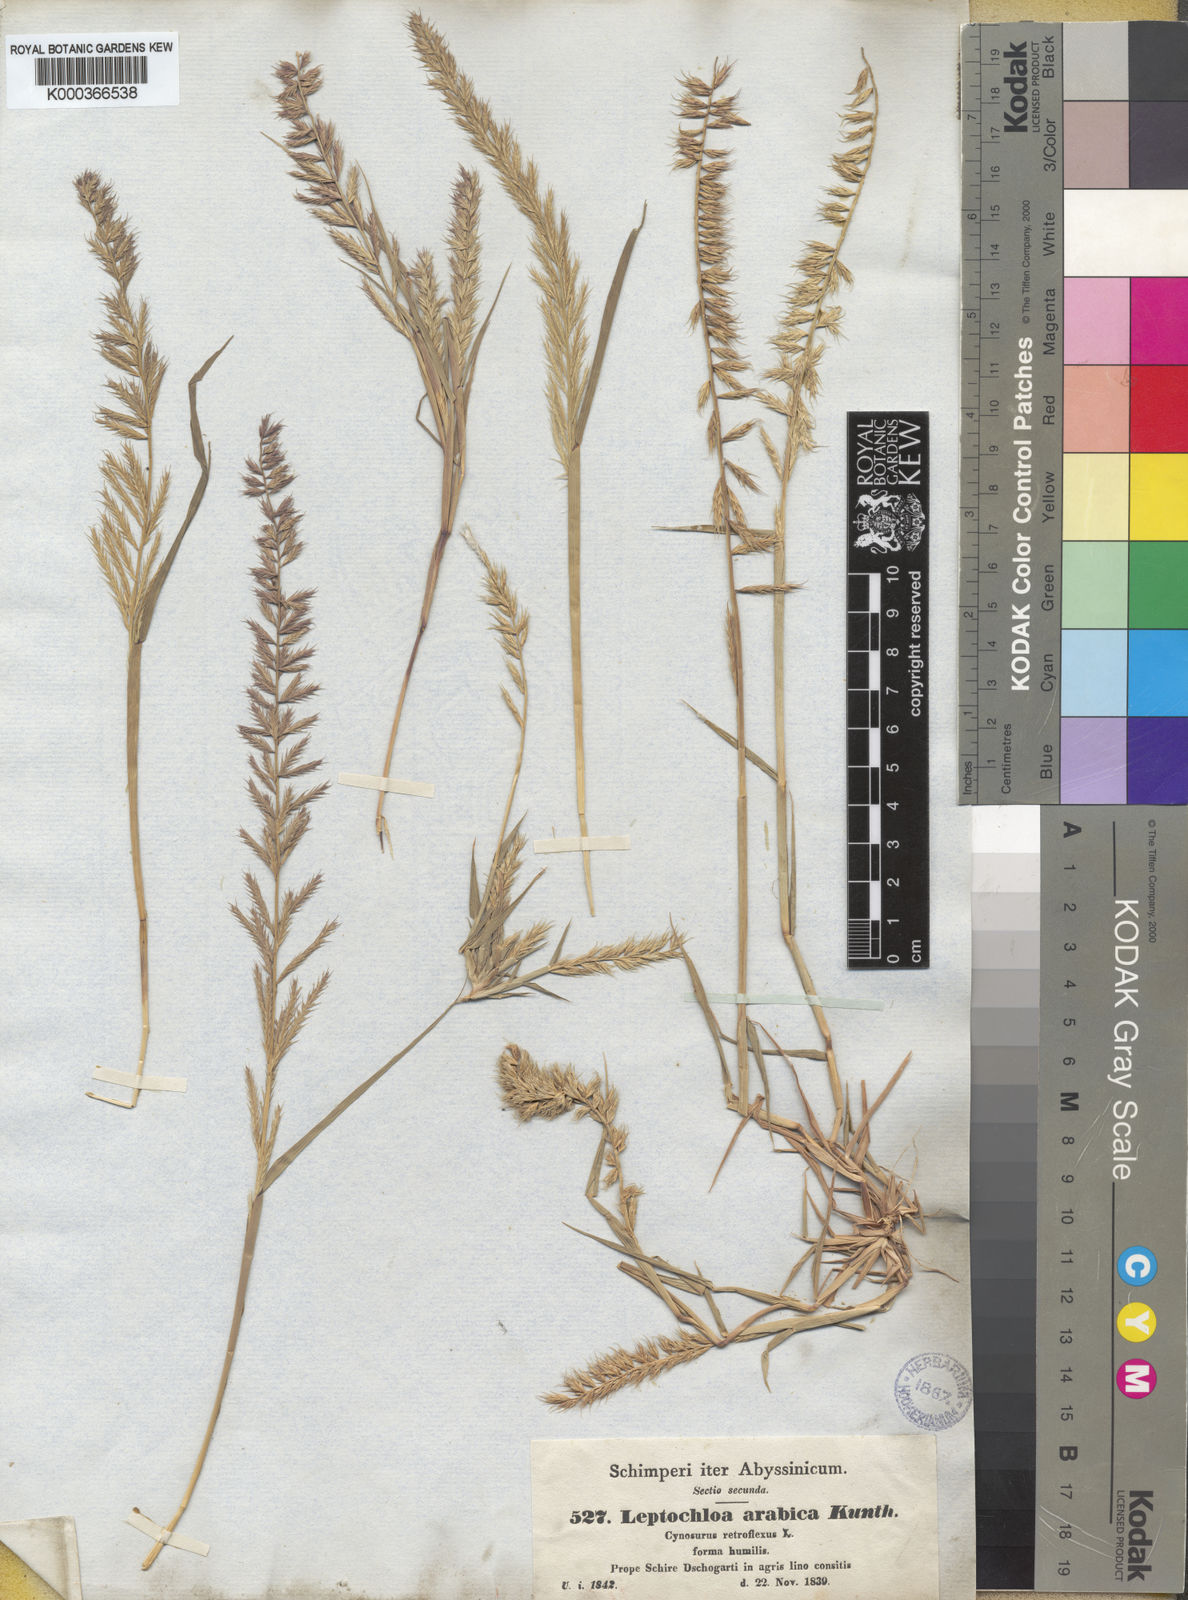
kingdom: Plantae
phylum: Tracheophyta
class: Liliopsida
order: Poales
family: Poaceae
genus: Dinebra
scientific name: Dinebra retroflexa
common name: Viper grass
